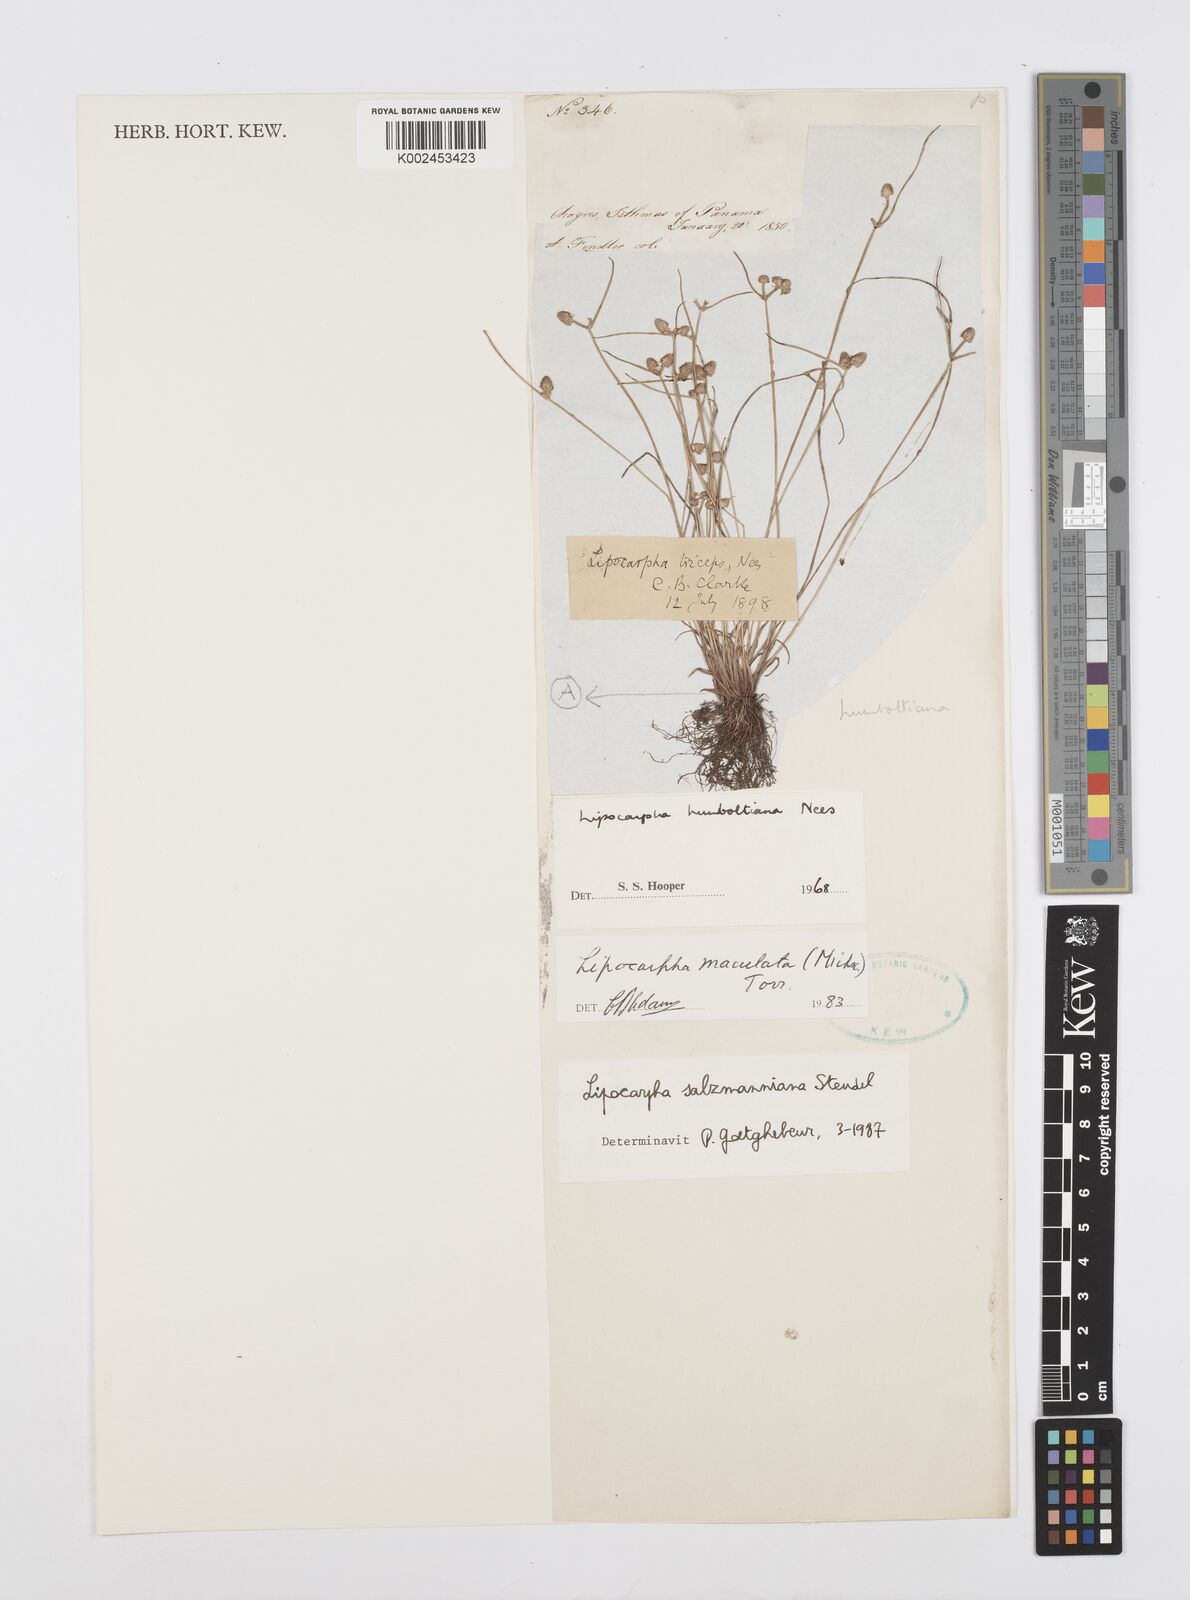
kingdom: Plantae
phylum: Tracheophyta
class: Liliopsida
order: Poales
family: Cyperaceae
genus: Cyperus
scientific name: Cyperus salzmannianus
